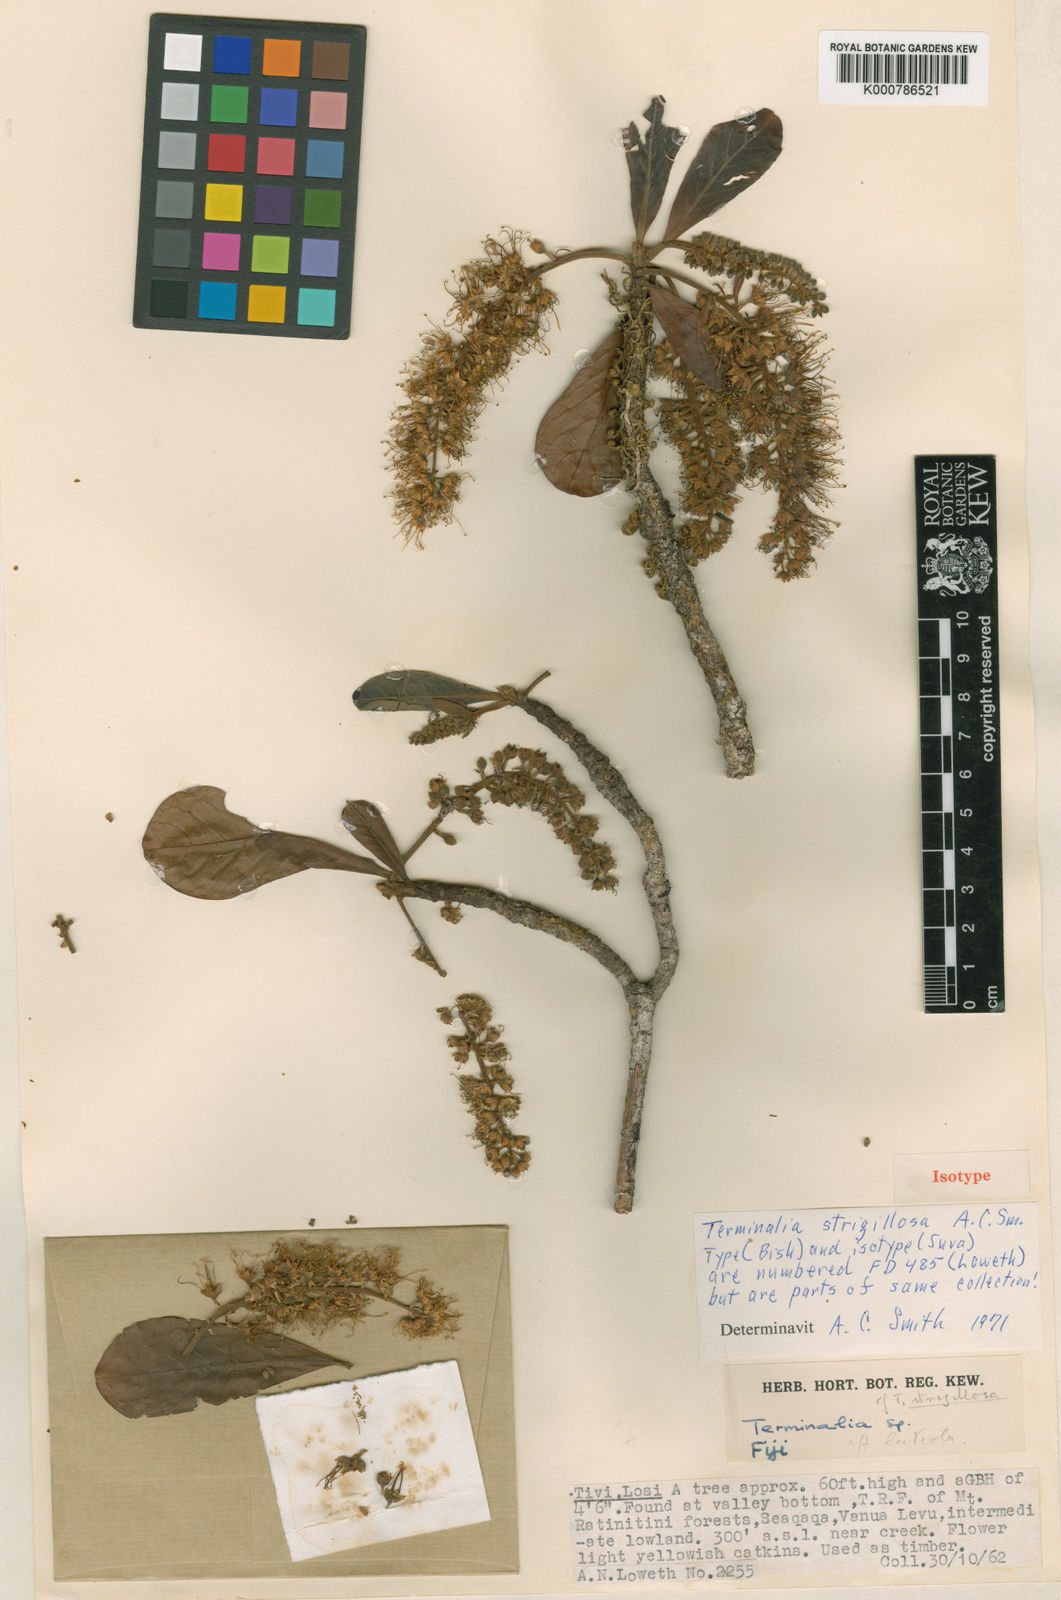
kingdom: Plantae
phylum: Tracheophyta
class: Magnoliopsida
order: Myrtales
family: Combretaceae
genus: Terminalia
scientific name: Terminalia strigillosa
